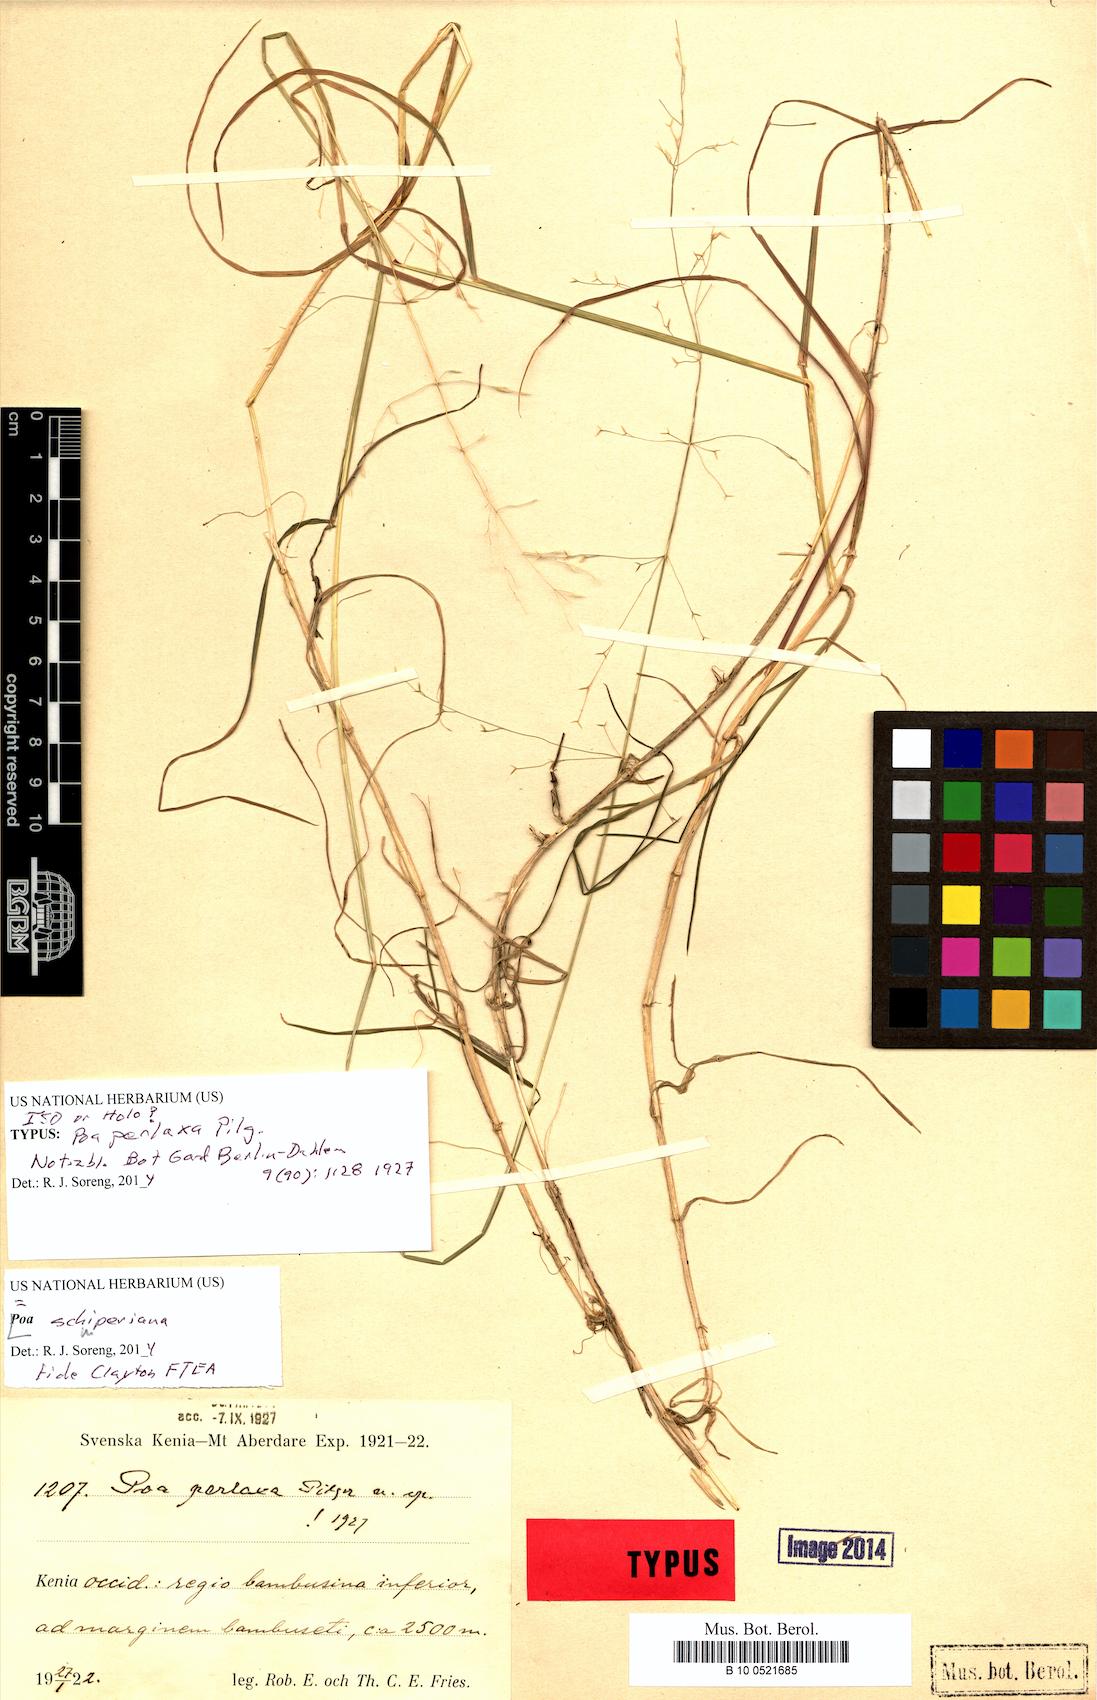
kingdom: Plantae
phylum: Tracheophyta
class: Liliopsida
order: Poales
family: Poaceae
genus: Poa
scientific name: Poa schimperiana
